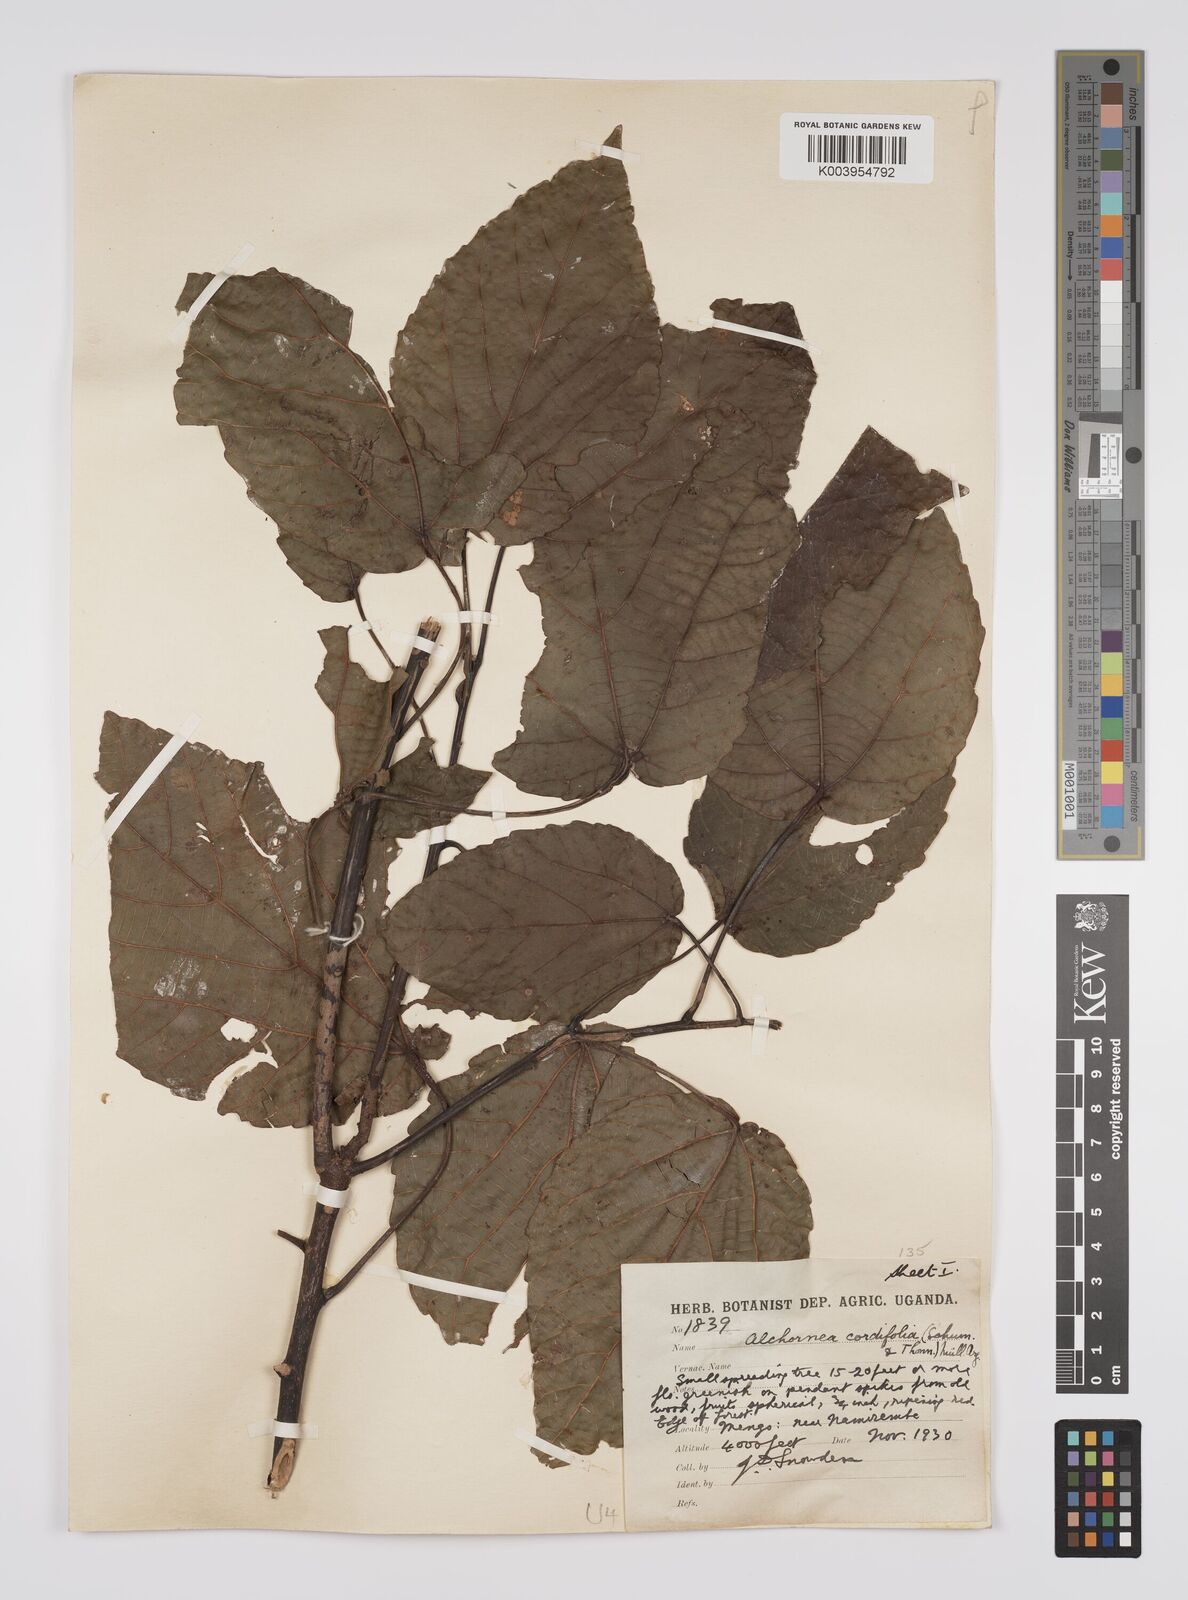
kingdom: Plantae
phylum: Tracheophyta
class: Magnoliopsida
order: Malpighiales
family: Euphorbiaceae
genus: Alchornea
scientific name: Alchornea cordifolia
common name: Christmasbush
